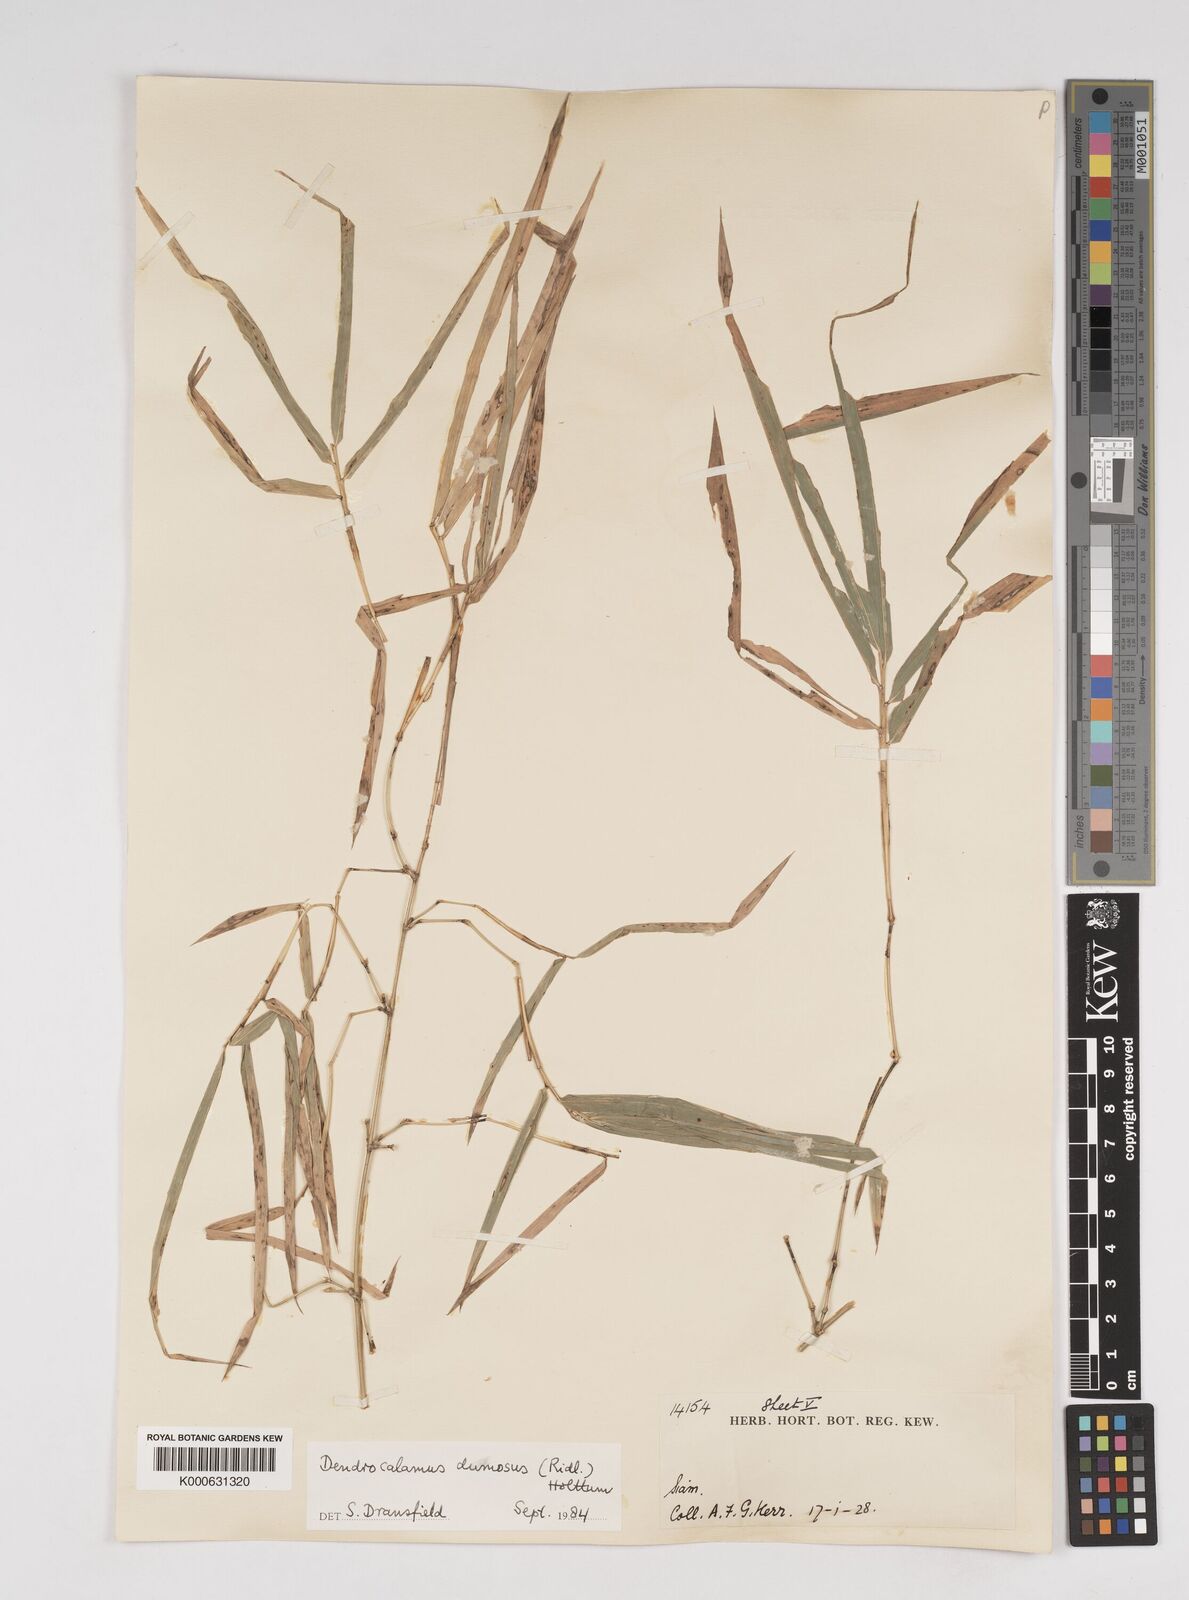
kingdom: Plantae
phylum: Tracheophyta
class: Liliopsida
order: Poales
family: Poaceae
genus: Dendrocalamus
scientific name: Dendrocalamus dumosus
